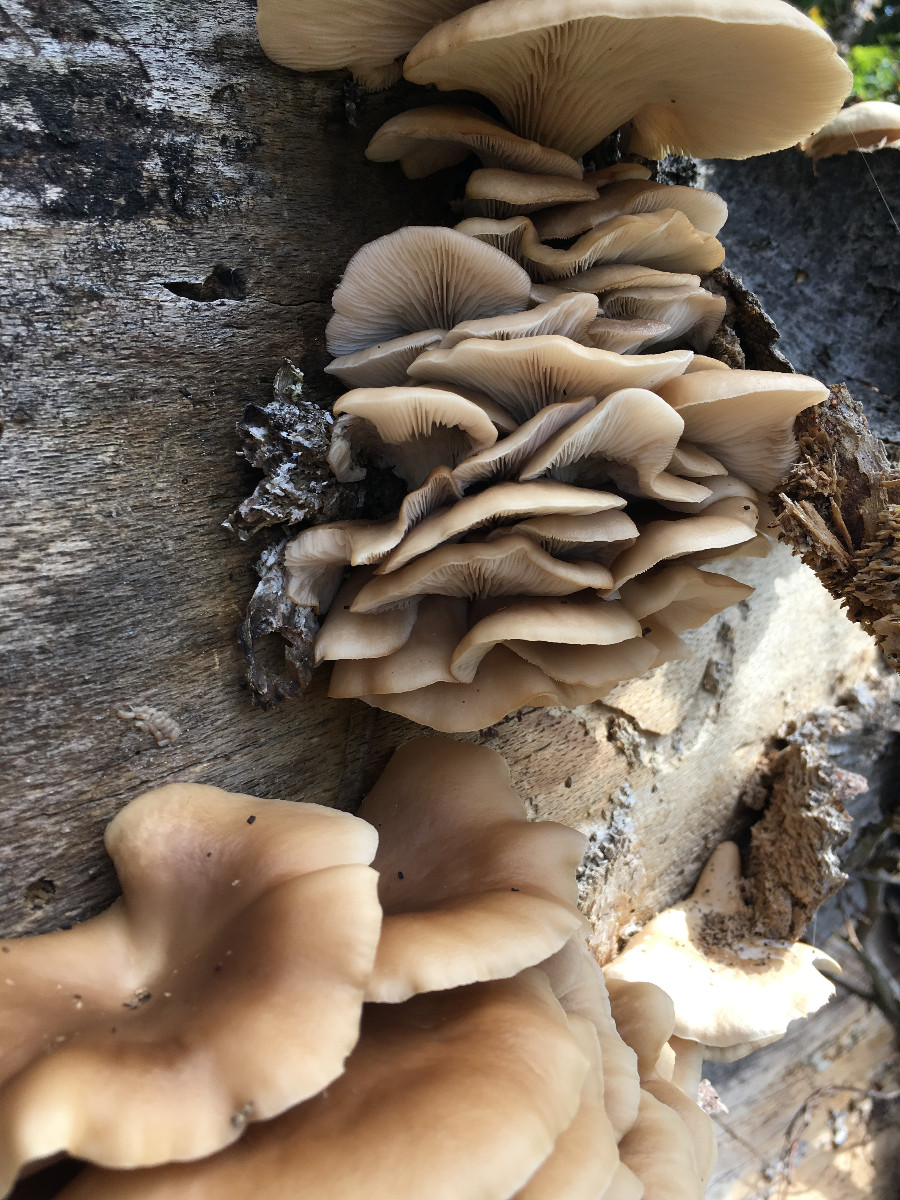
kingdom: Fungi
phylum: Basidiomycota
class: Agaricomycetes
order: Agaricales
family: Pleurotaceae
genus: Pleurotus
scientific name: Pleurotus pulmonarius
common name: sommer-østershat
